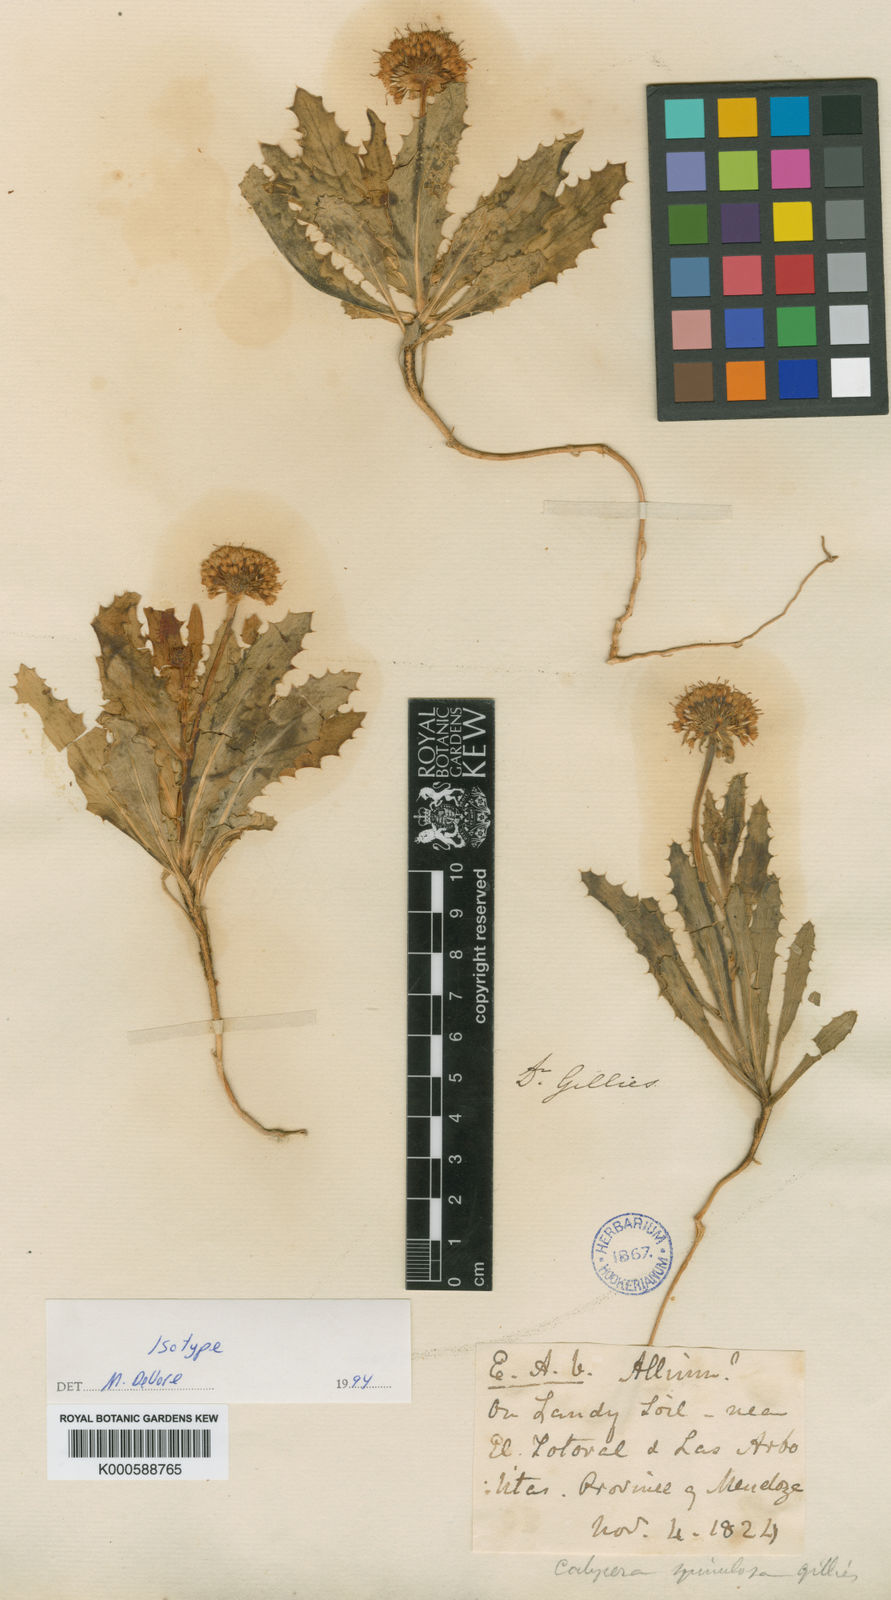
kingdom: Plantae
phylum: Tracheophyta
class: Magnoliopsida
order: Asterales
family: Calyceraceae
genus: Calycera
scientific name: Calycera crassifolia
